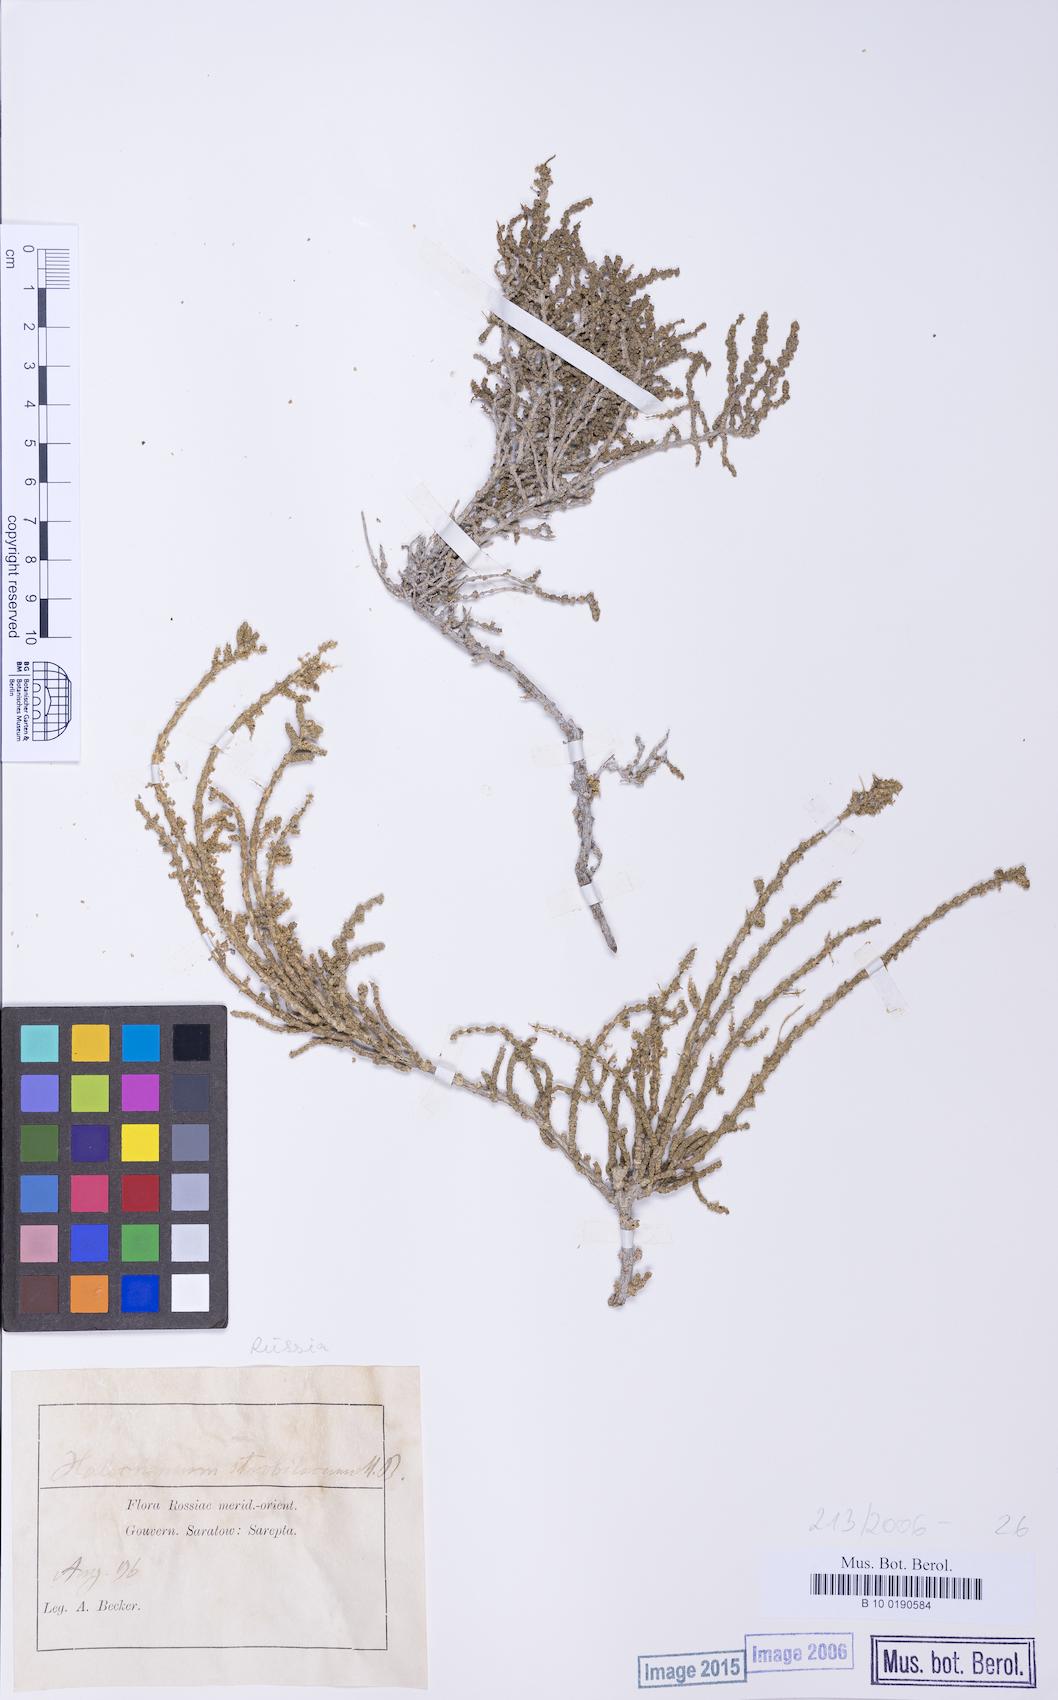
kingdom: Plantae
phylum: Tracheophyta
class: Magnoliopsida
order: Caryophyllales
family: Amaranthaceae
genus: Halocnemum
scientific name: Halocnemum strobilaceum
